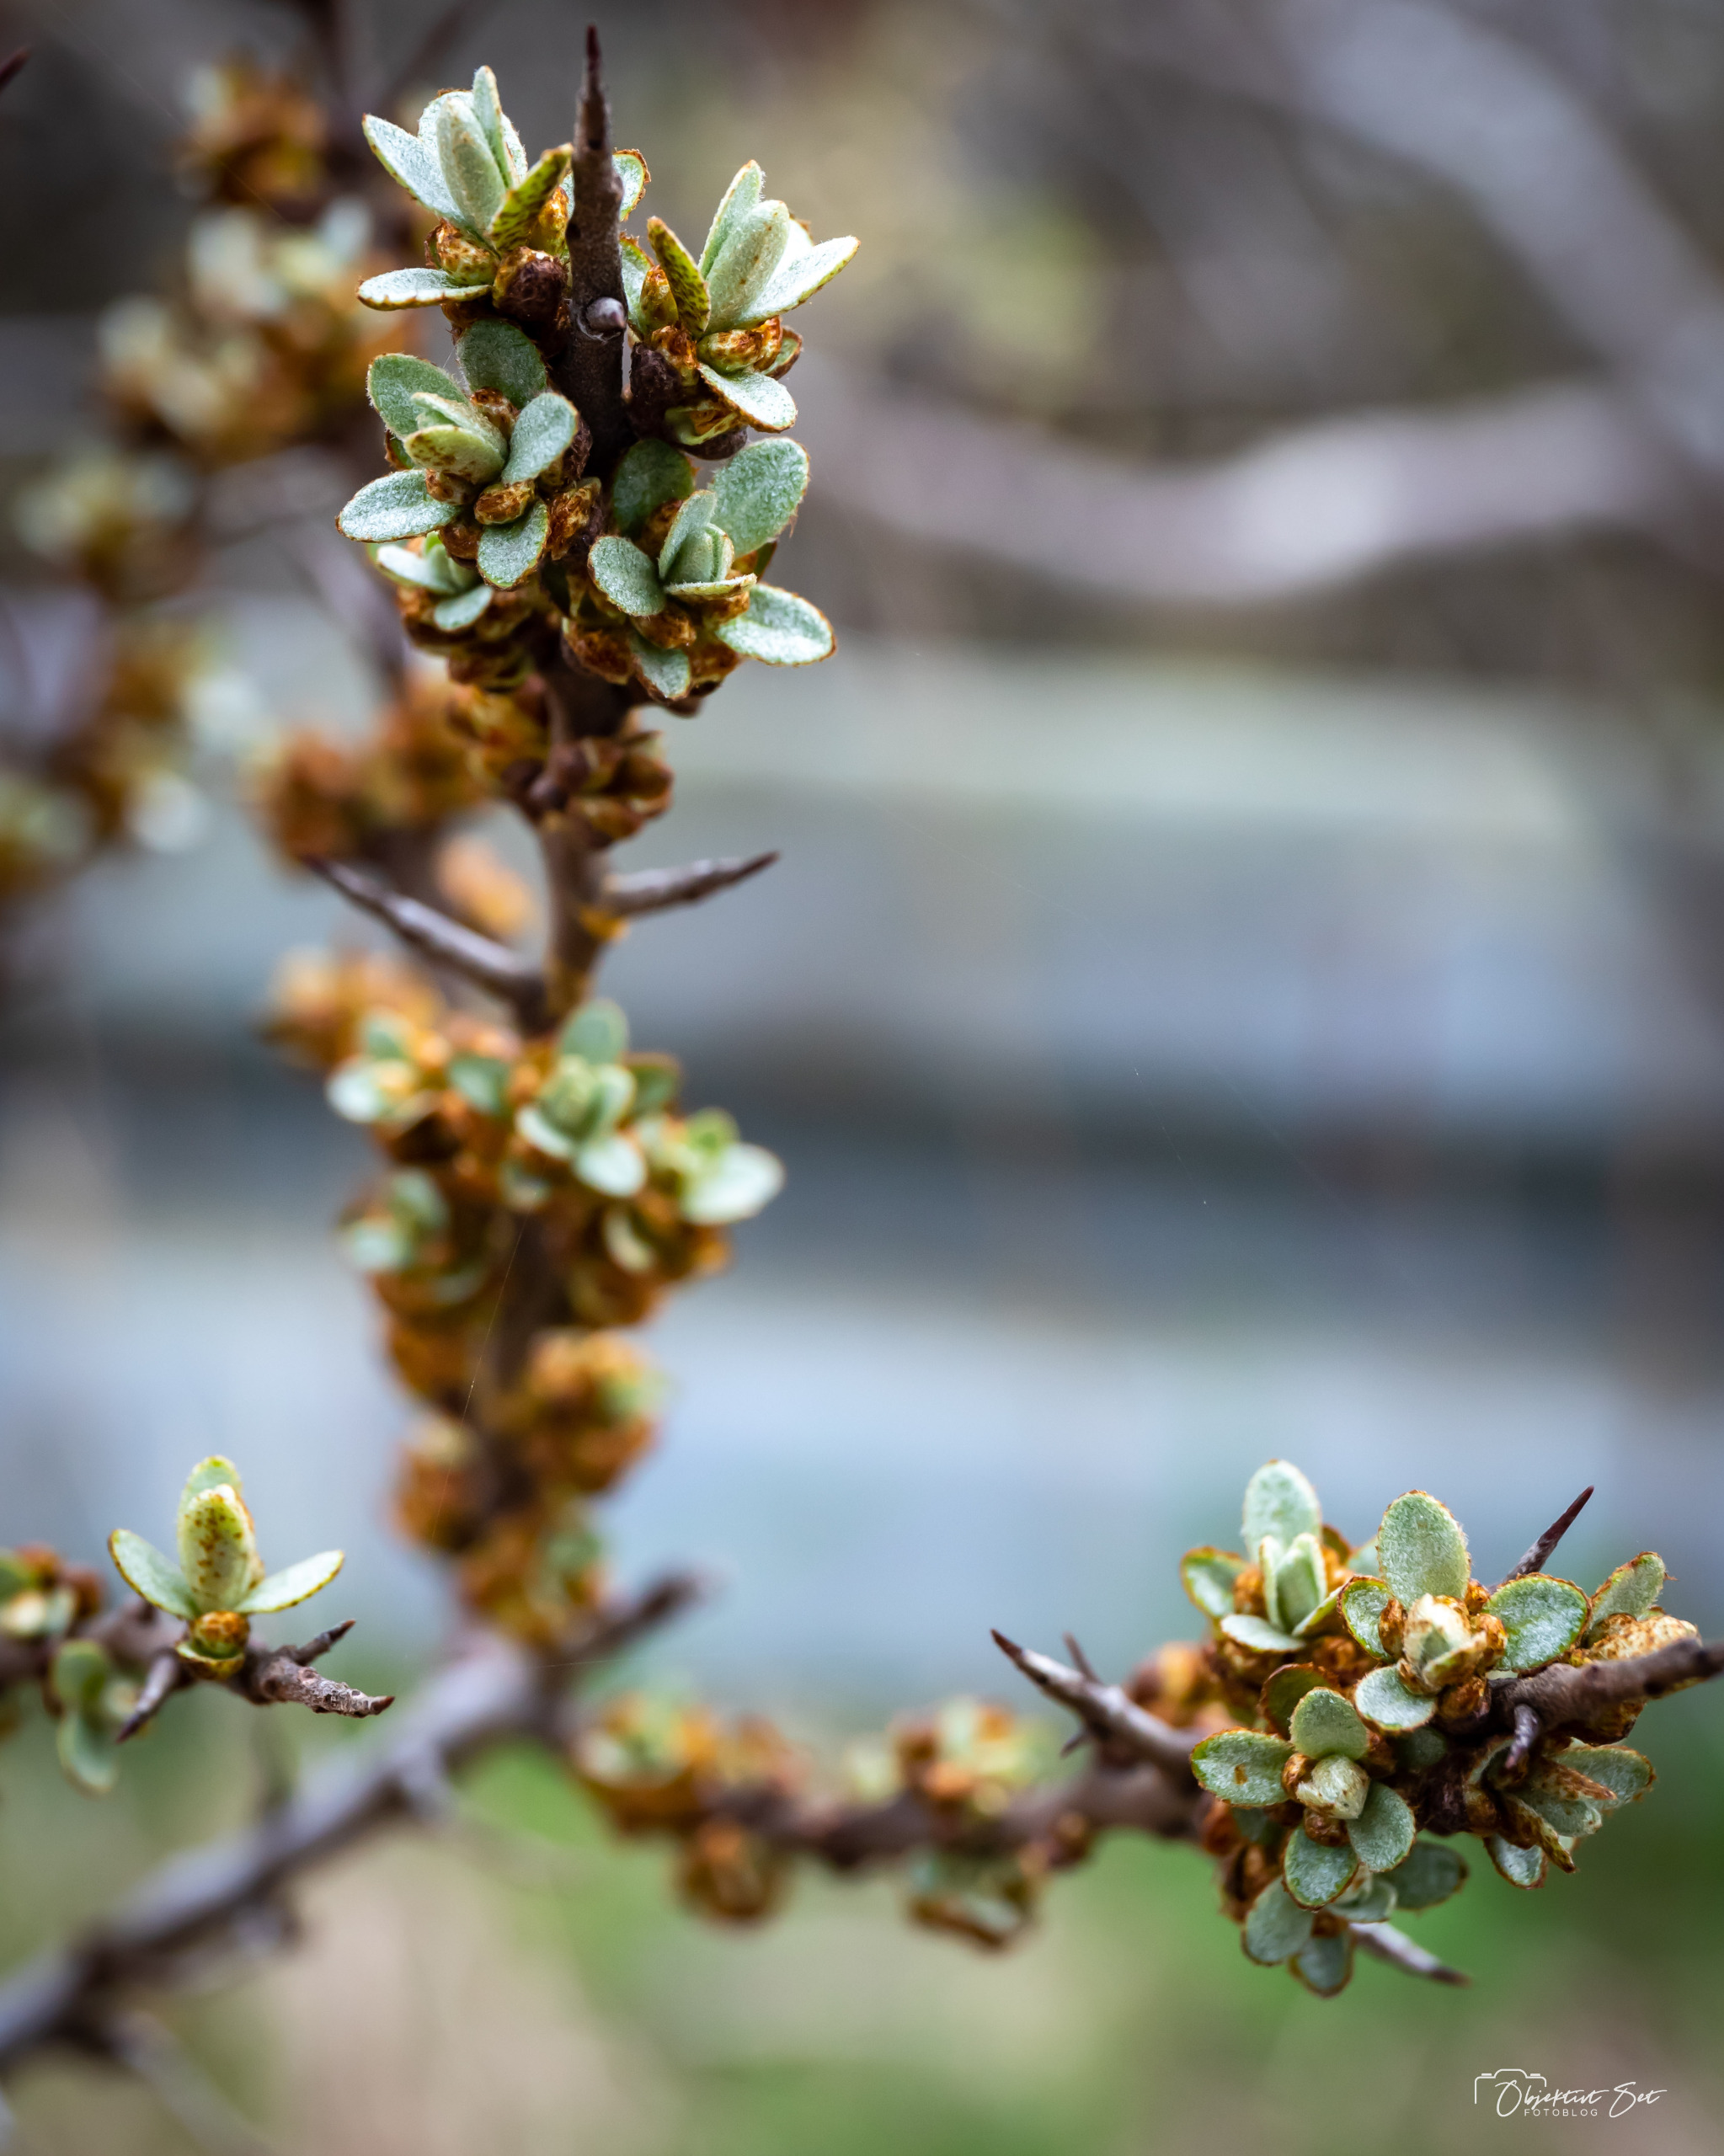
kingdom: Plantae
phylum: Tracheophyta
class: Magnoliopsida
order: Rosales
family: Elaeagnaceae
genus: Hippophae
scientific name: Hippophae rhamnoides
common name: Havtorn
